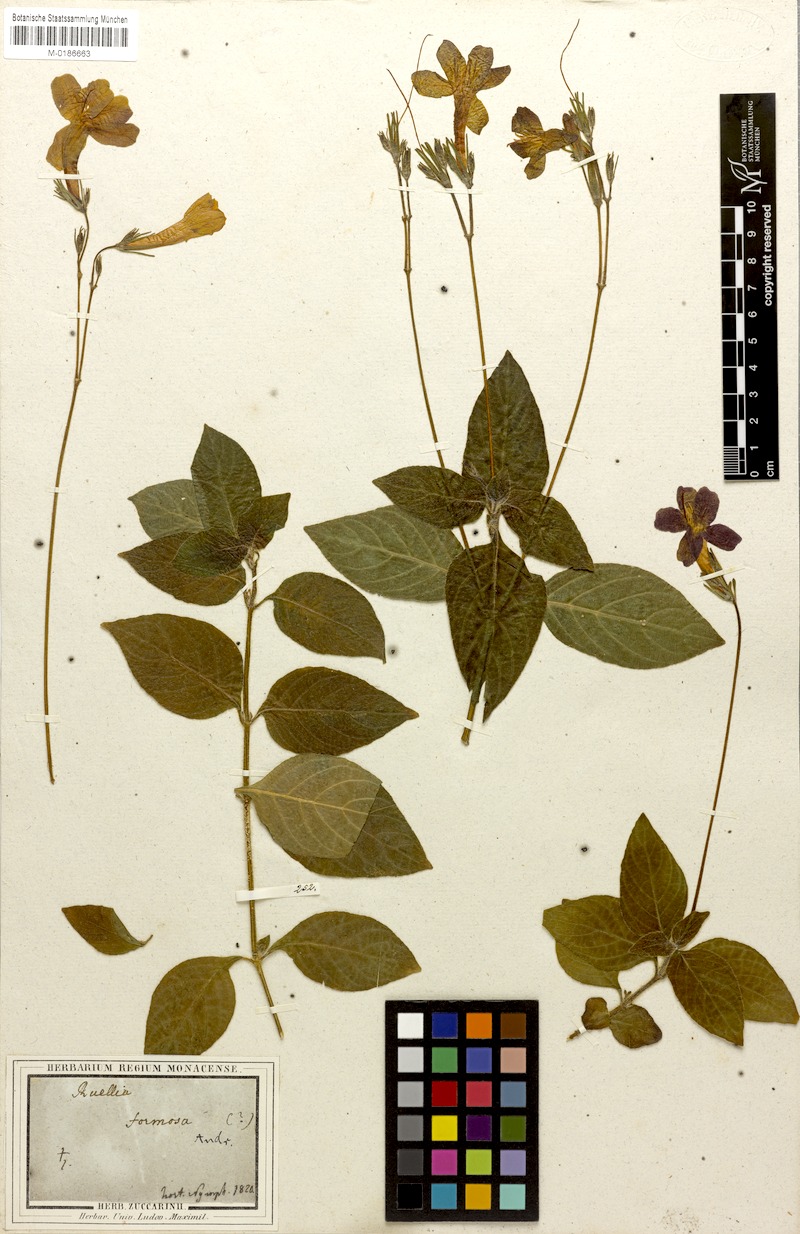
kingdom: Plantae
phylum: Tracheophyta
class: Magnoliopsida
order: Lamiales
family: Acanthaceae
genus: Ruellia
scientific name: Ruellia elegans
